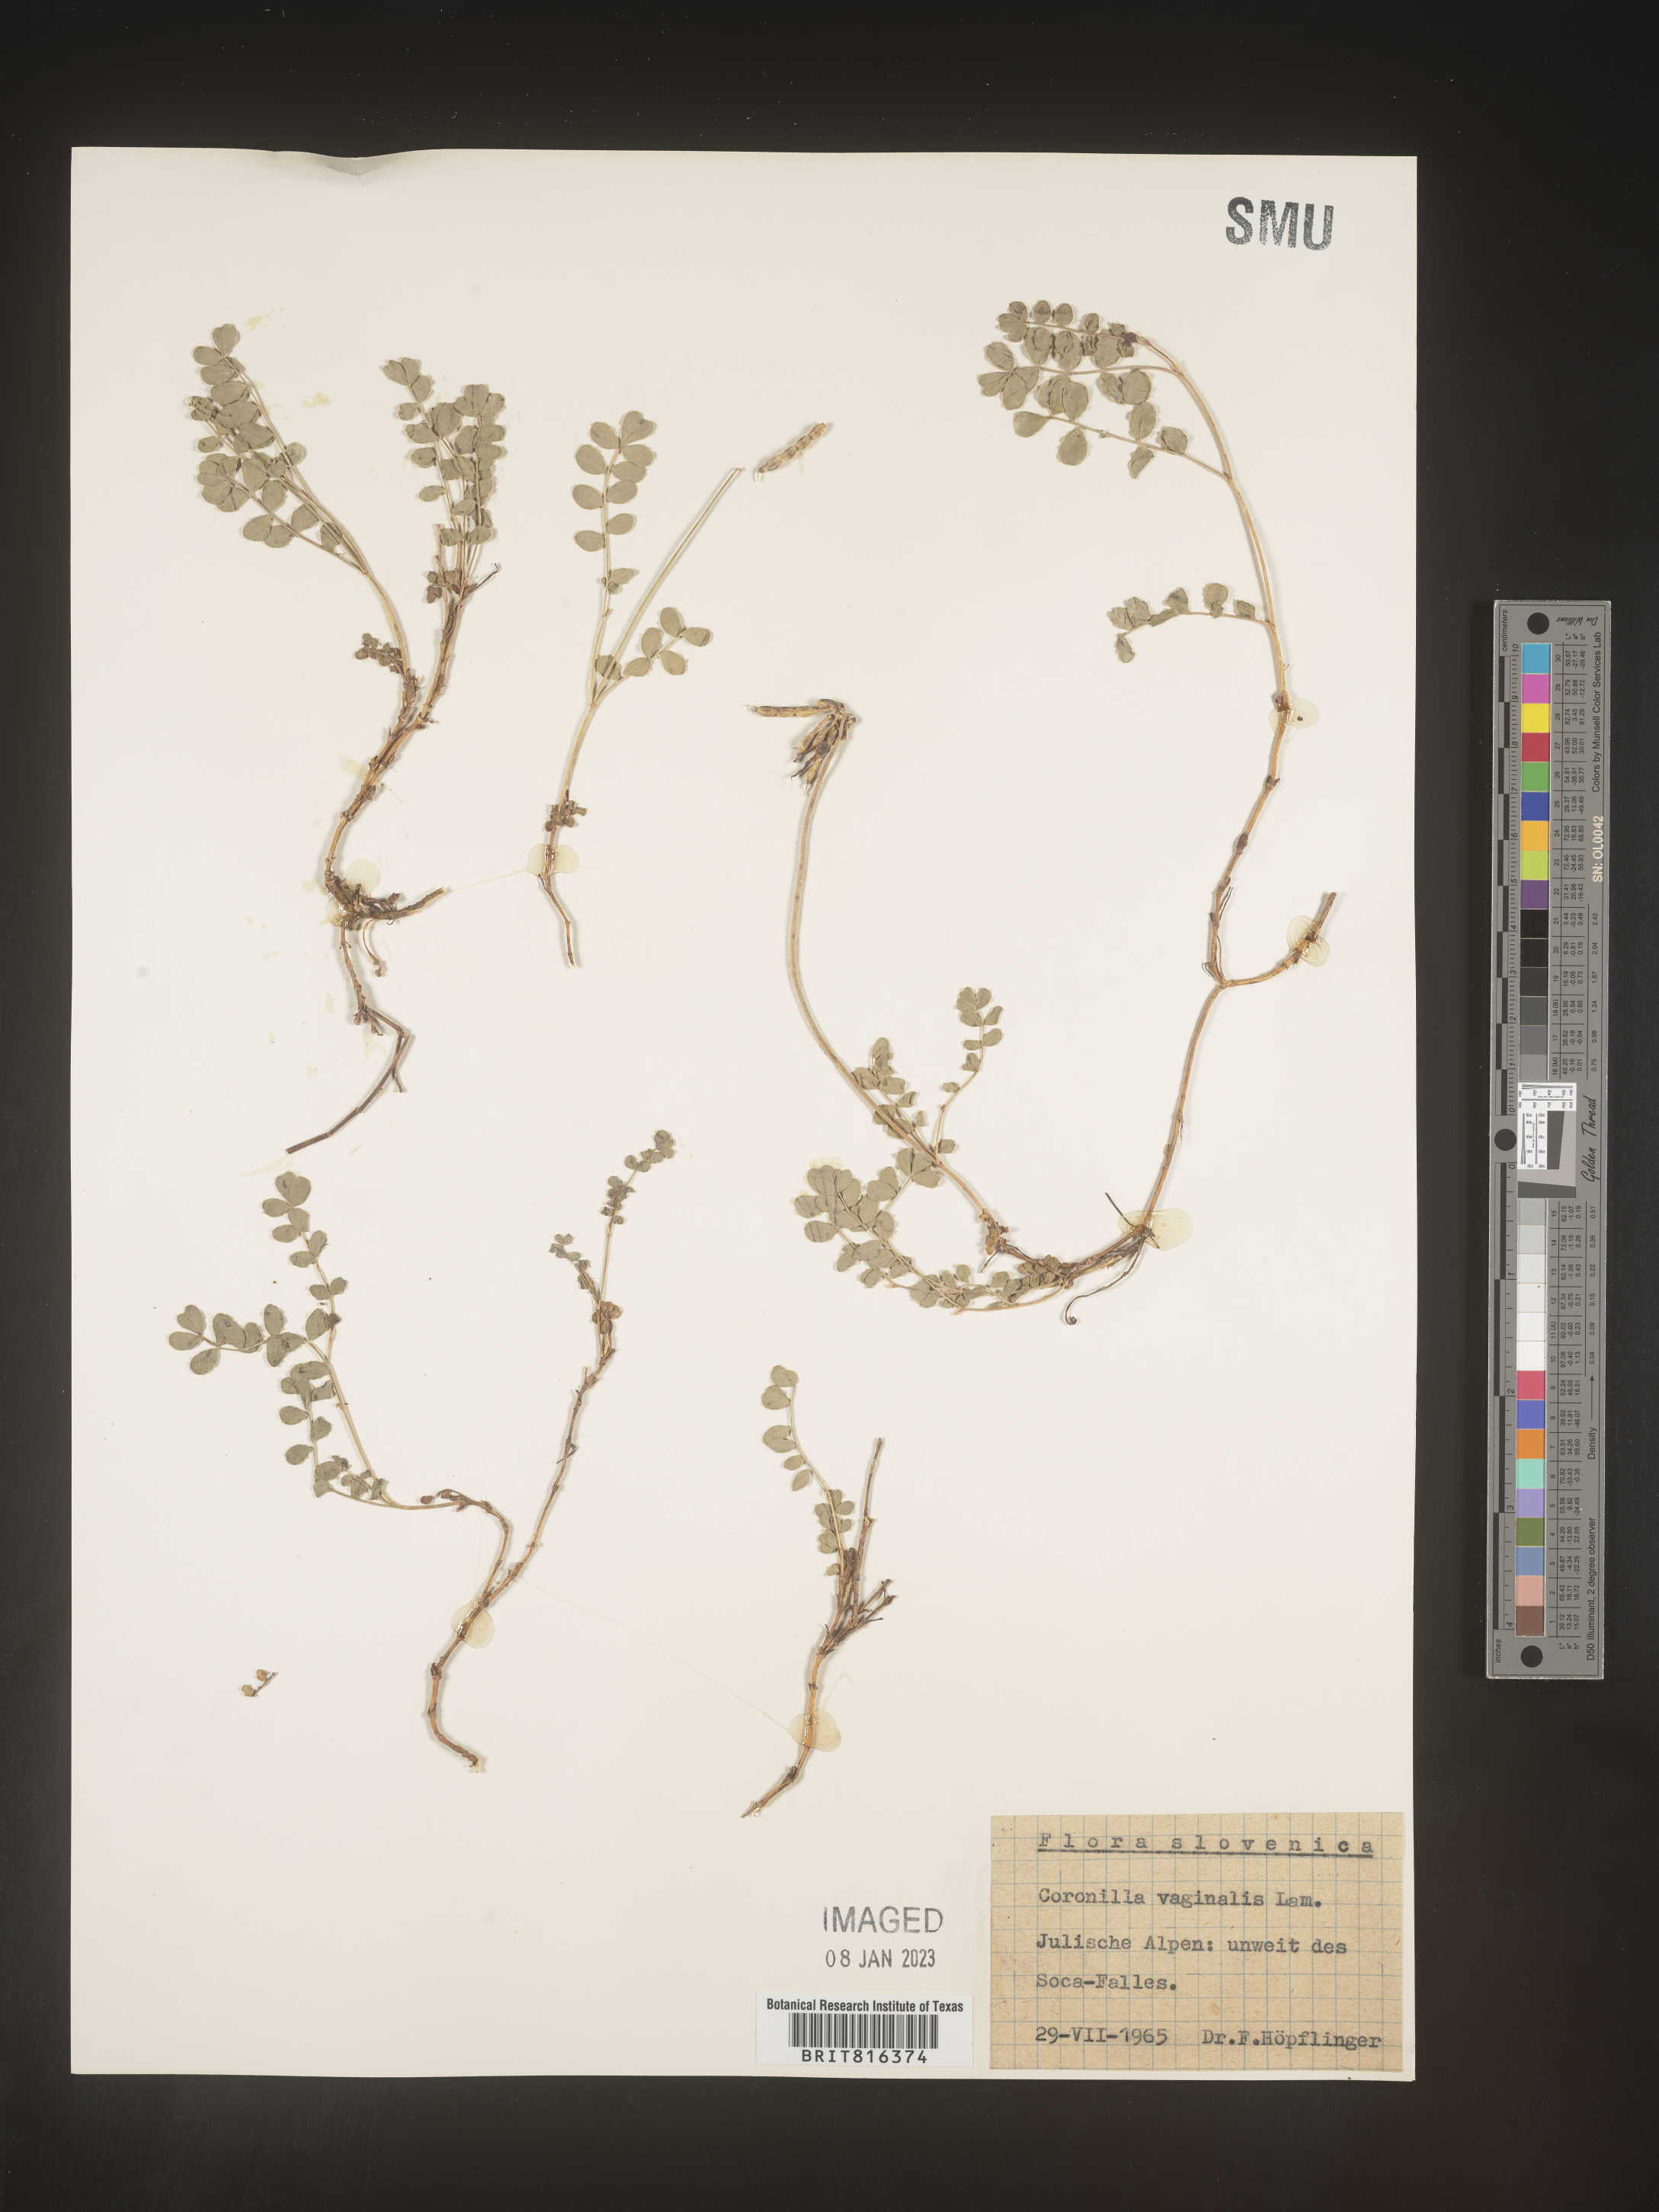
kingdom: Plantae
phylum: Tracheophyta
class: Magnoliopsida
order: Fabales
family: Fabaceae
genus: Coronilla
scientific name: Coronilla
